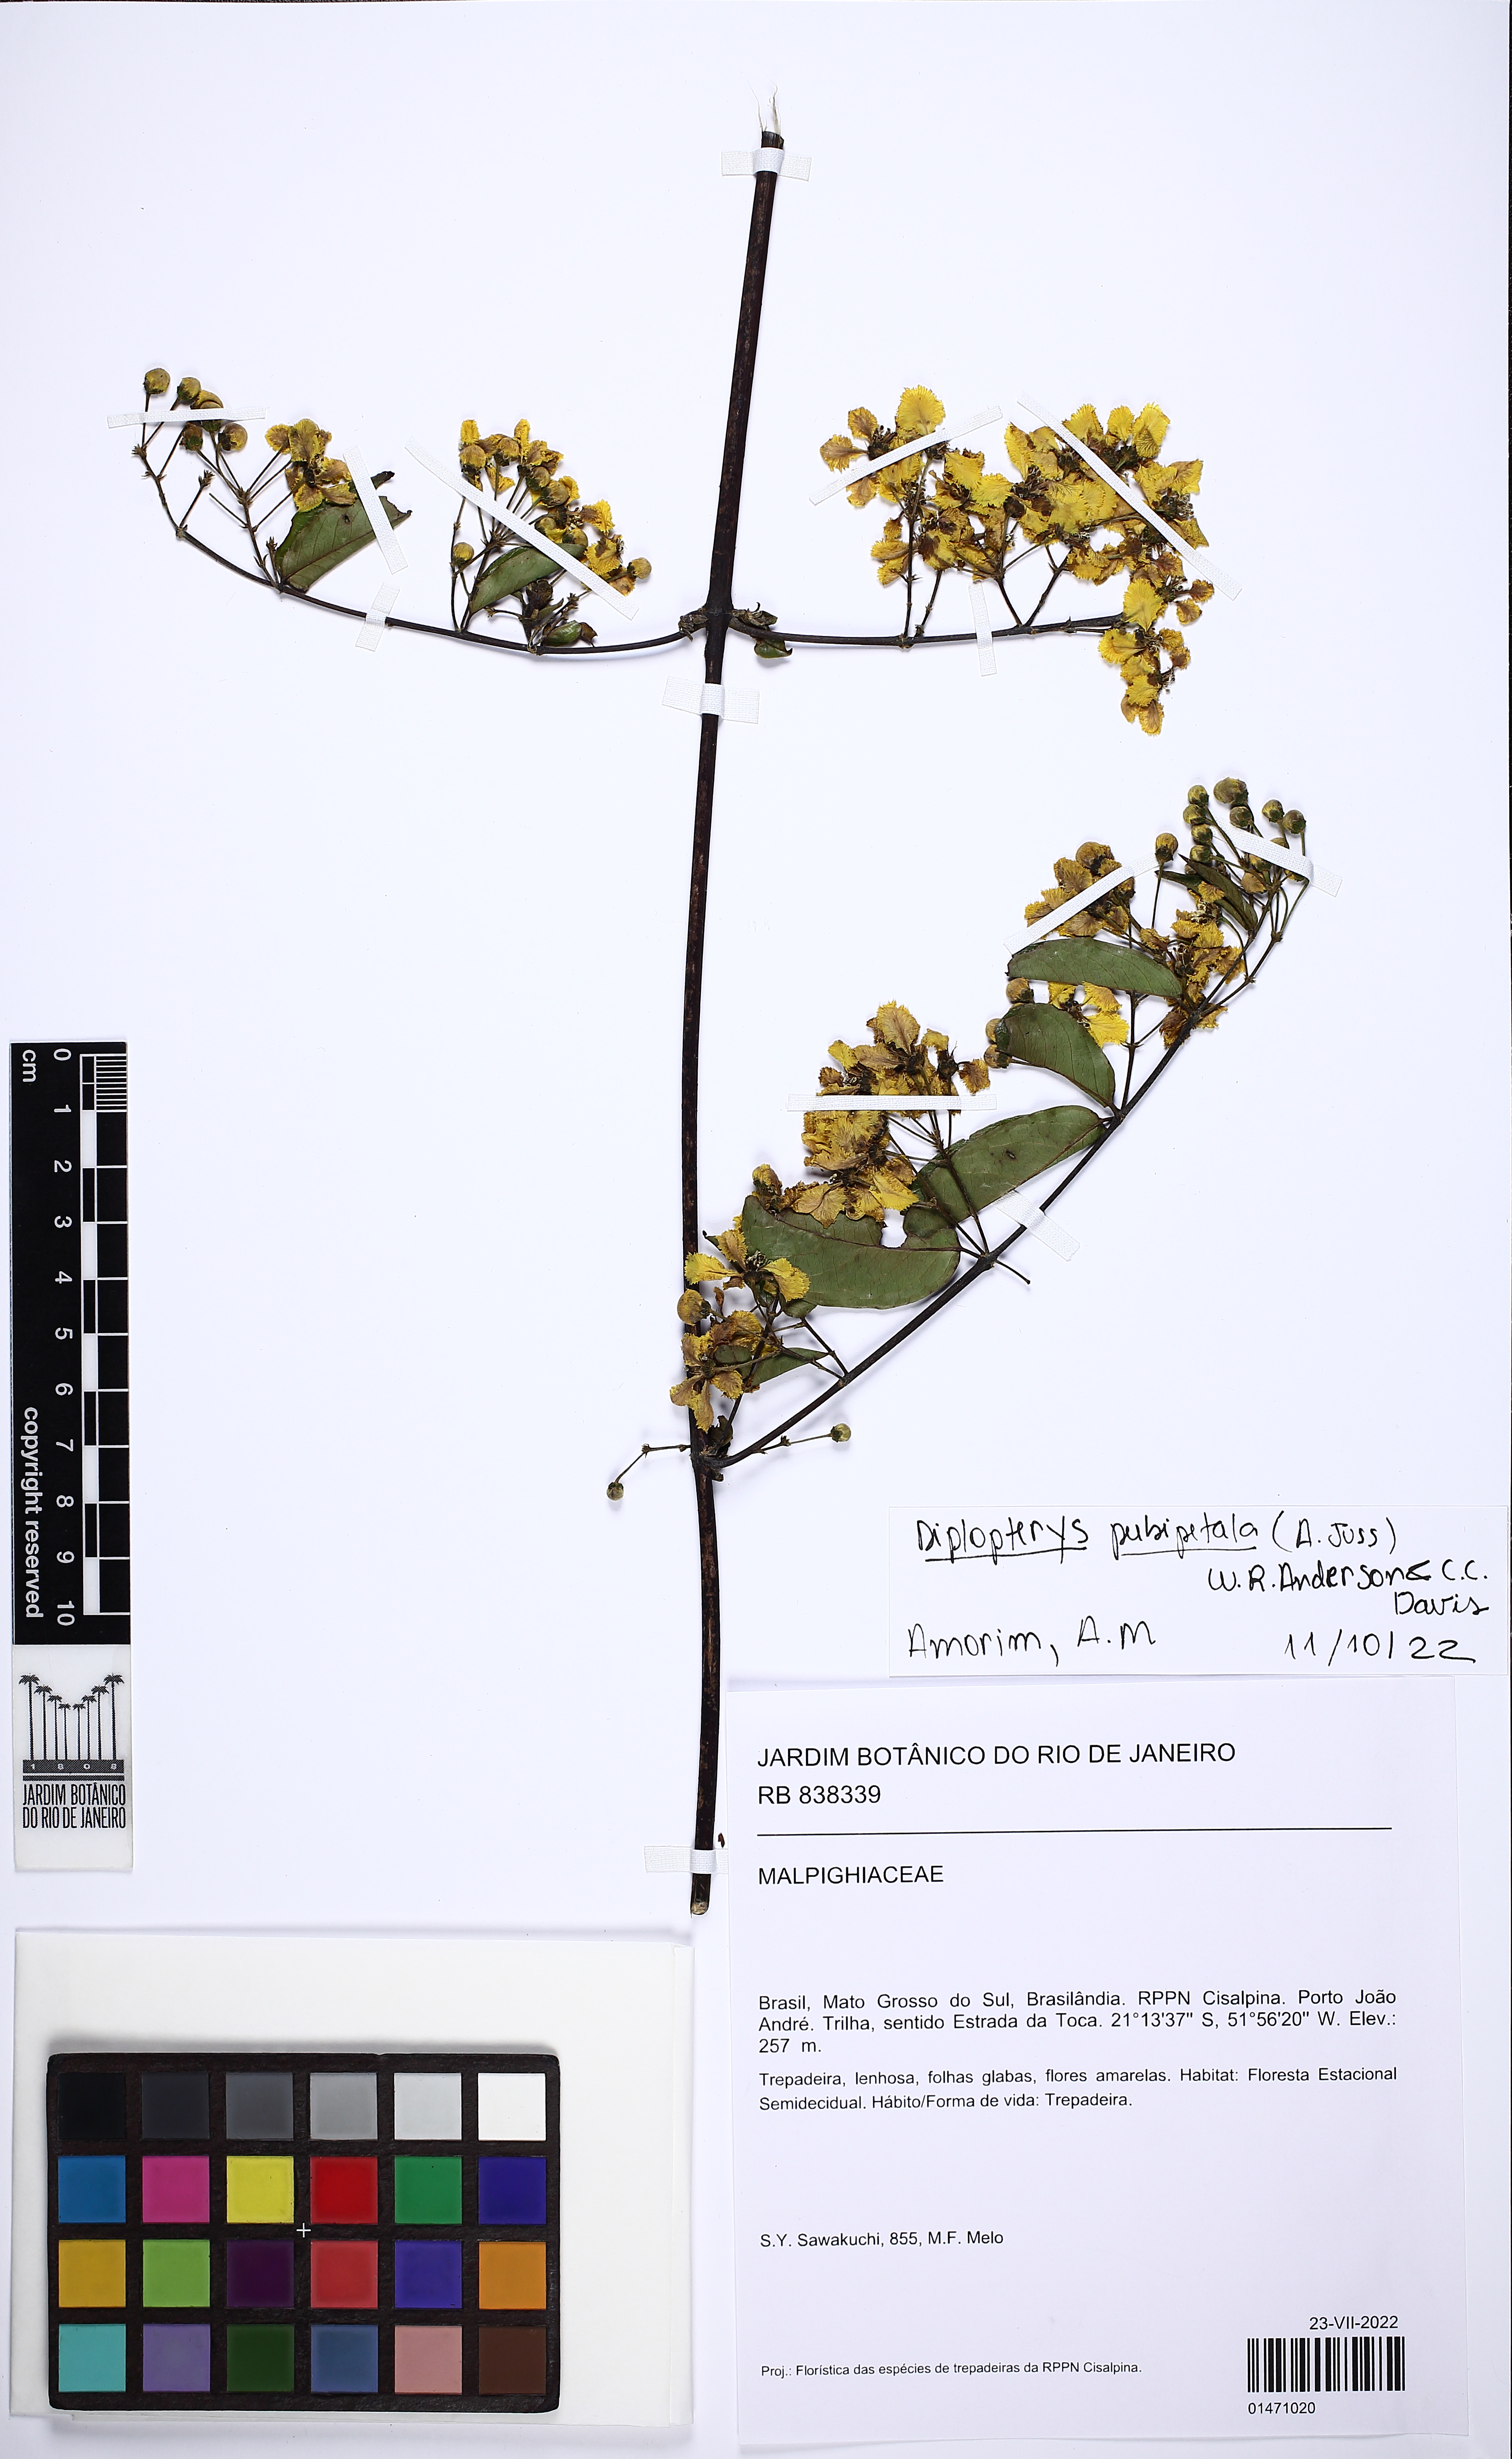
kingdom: Plantae
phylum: Tracheophyta
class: Magnoliopsida
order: Malpighiales
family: Malpighiaceae
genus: Diplopterys
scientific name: Diplopterys pubipetala
